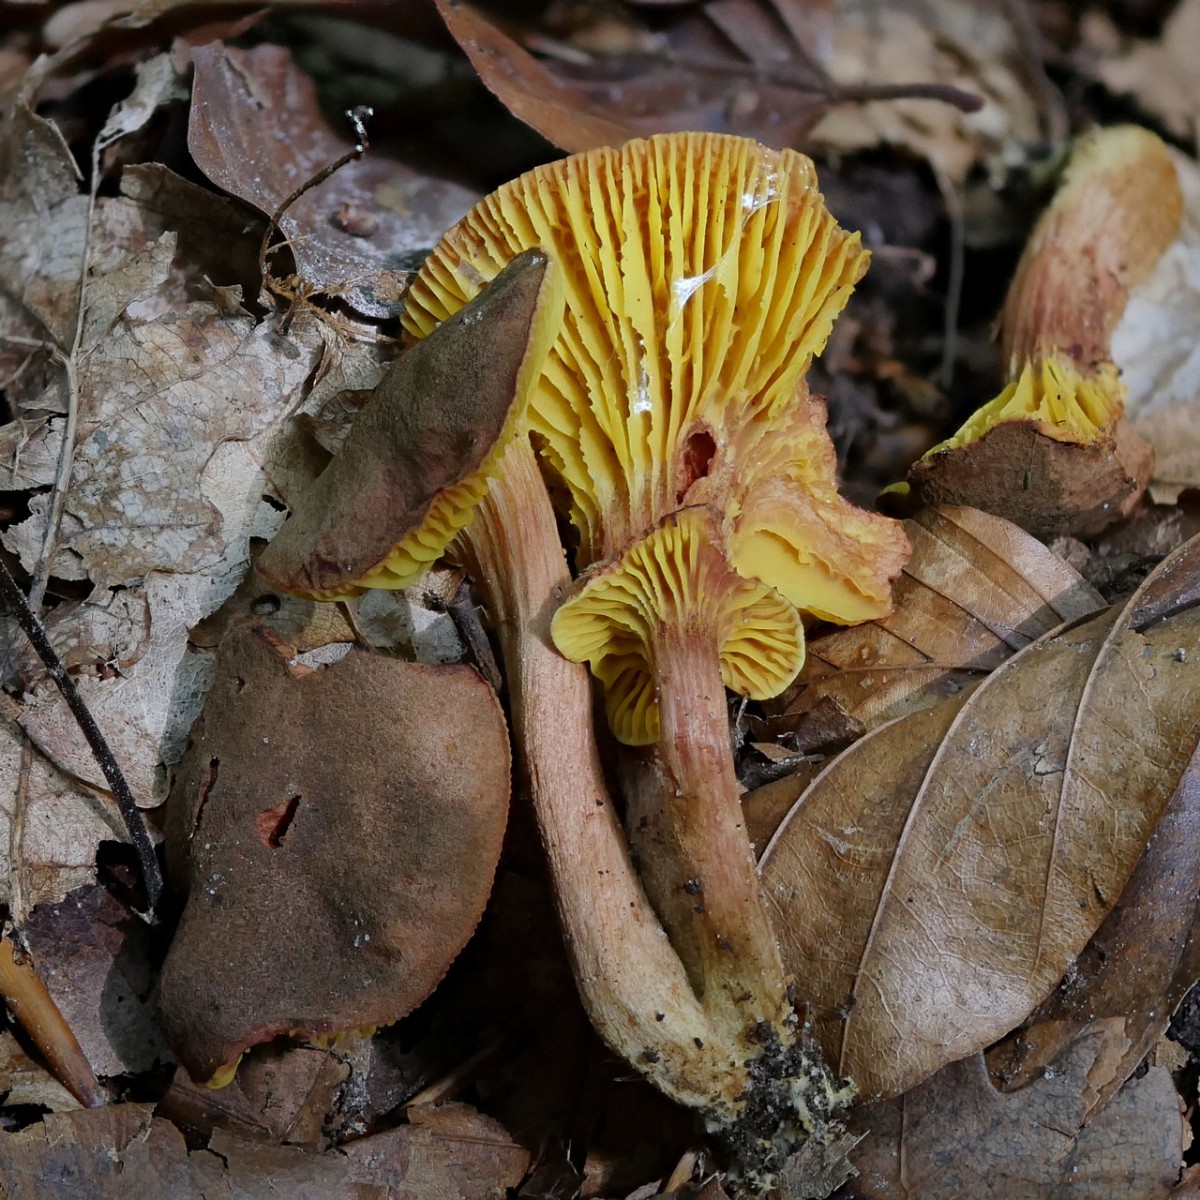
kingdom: Fungi
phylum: Basidiomycota
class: Agaricomycetes
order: Boletales
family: Boletaceae
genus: Phylloporus
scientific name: Phylloporus pelletieri
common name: lamelrørhat
